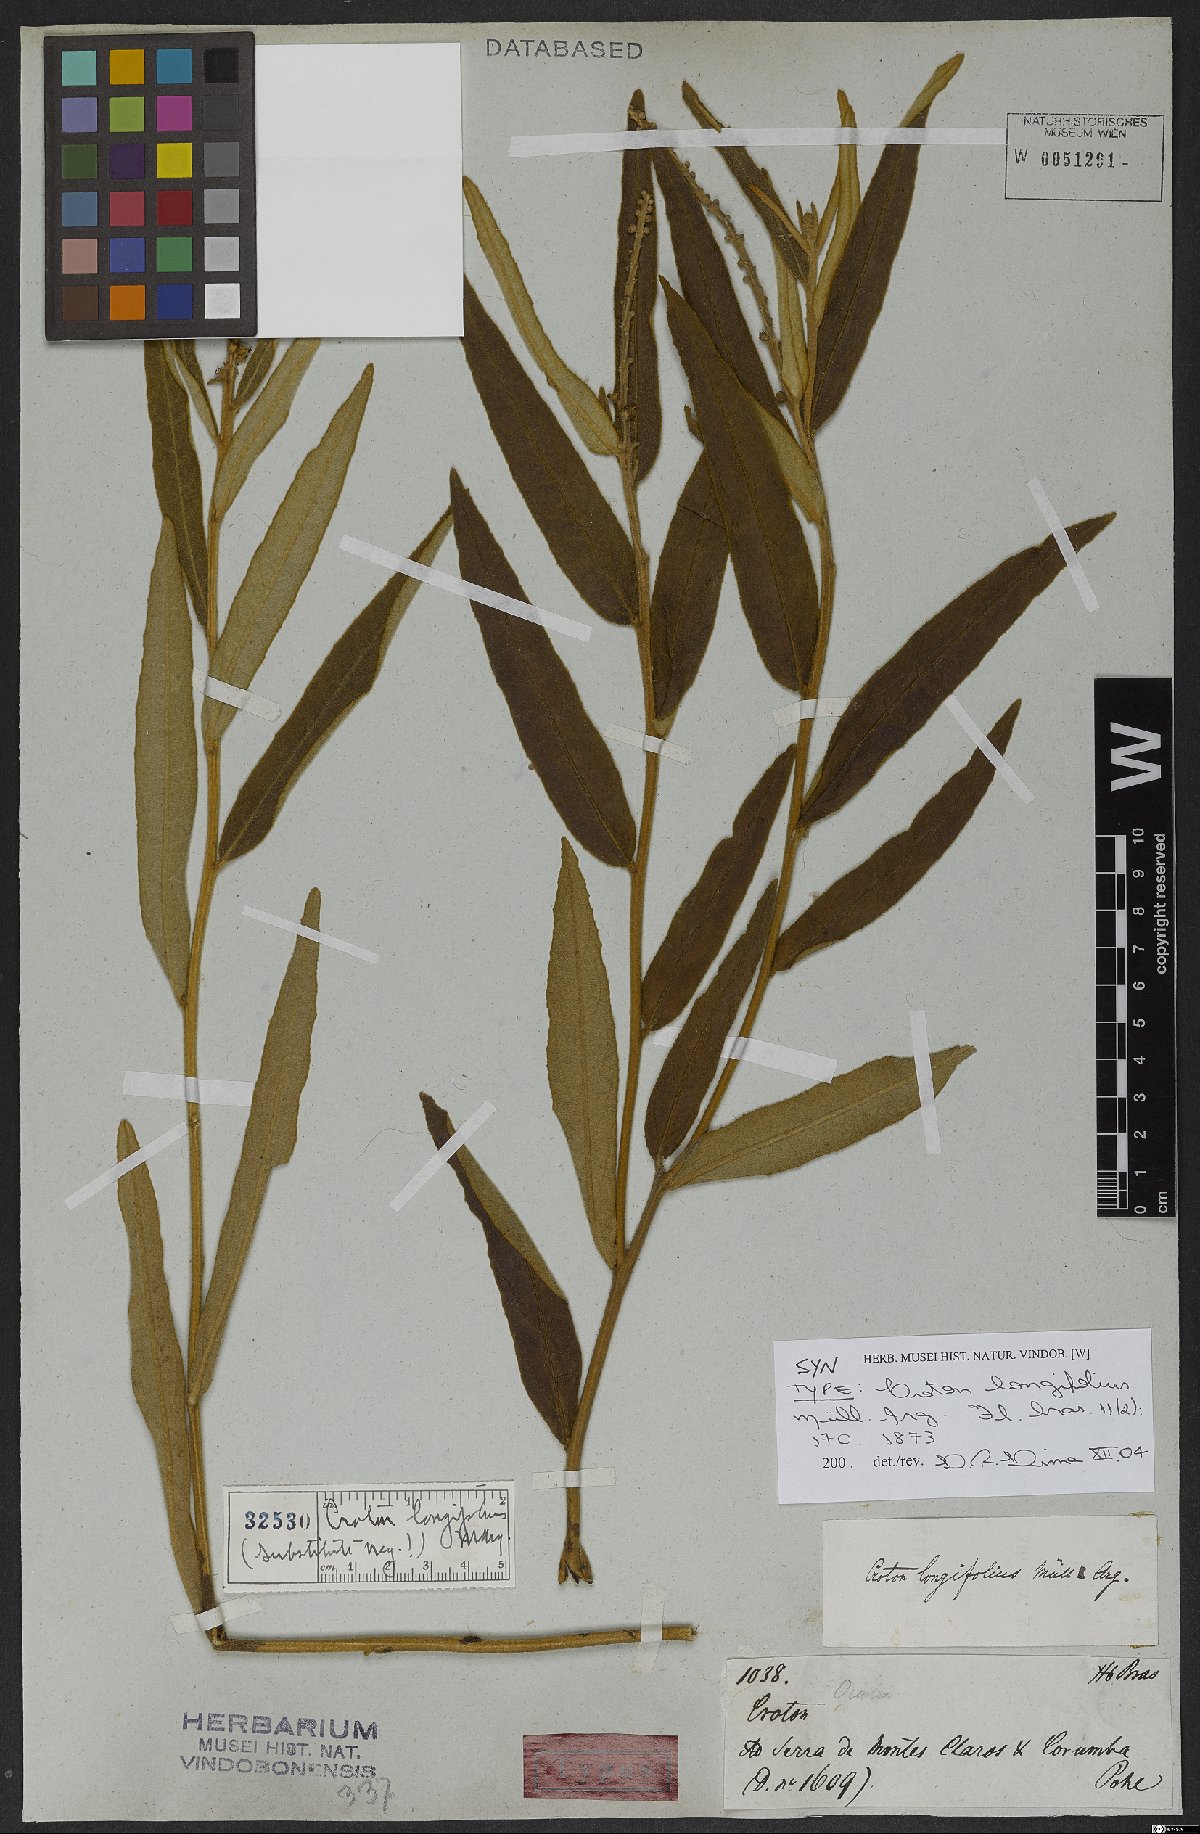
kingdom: Plantae
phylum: Tracheophyta
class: Magnoliopsida
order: Malpighiales
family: Euphorbiaceae
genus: Croton
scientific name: Croton longifolius
